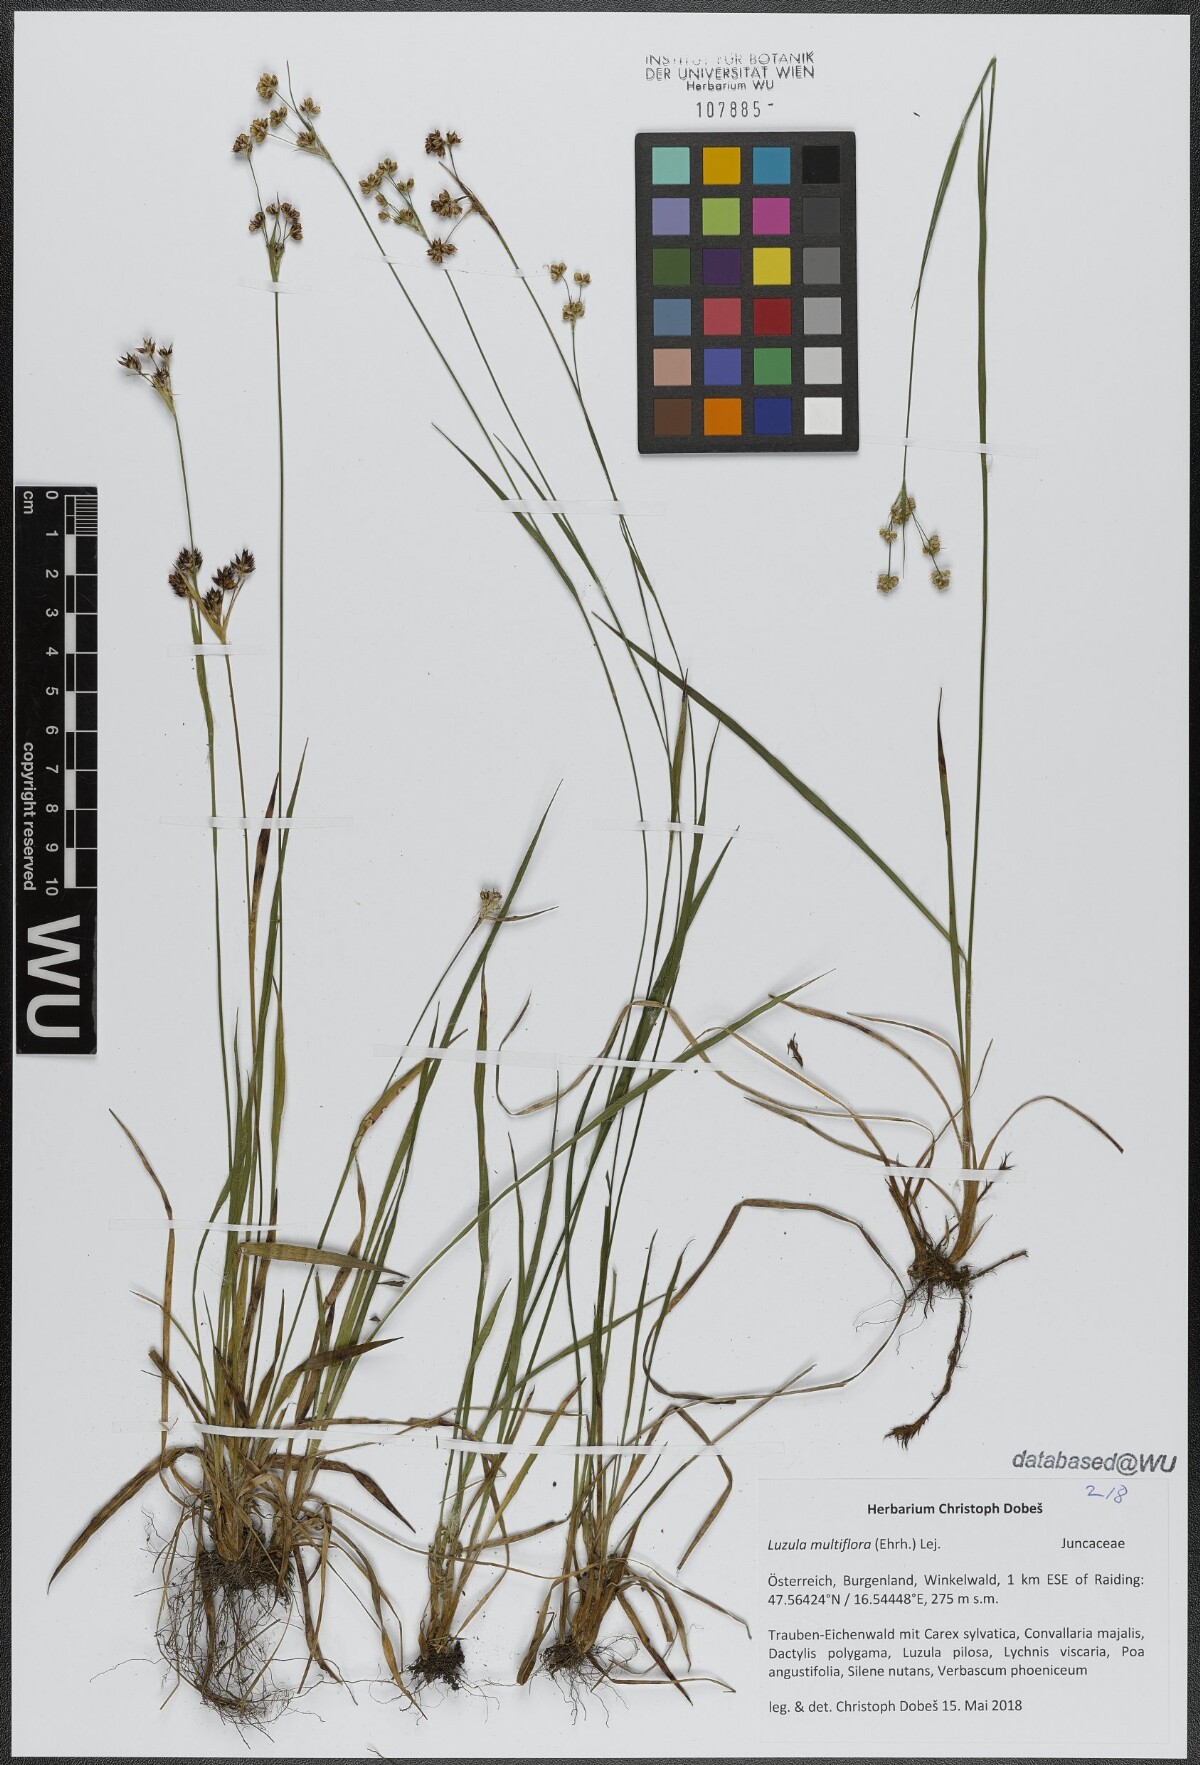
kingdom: Plantae
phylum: Tracheophyta
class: Liliopsida
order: Poales
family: Juncaceae
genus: Luzula
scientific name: Luzula multiflora
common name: Heath wood-rush
